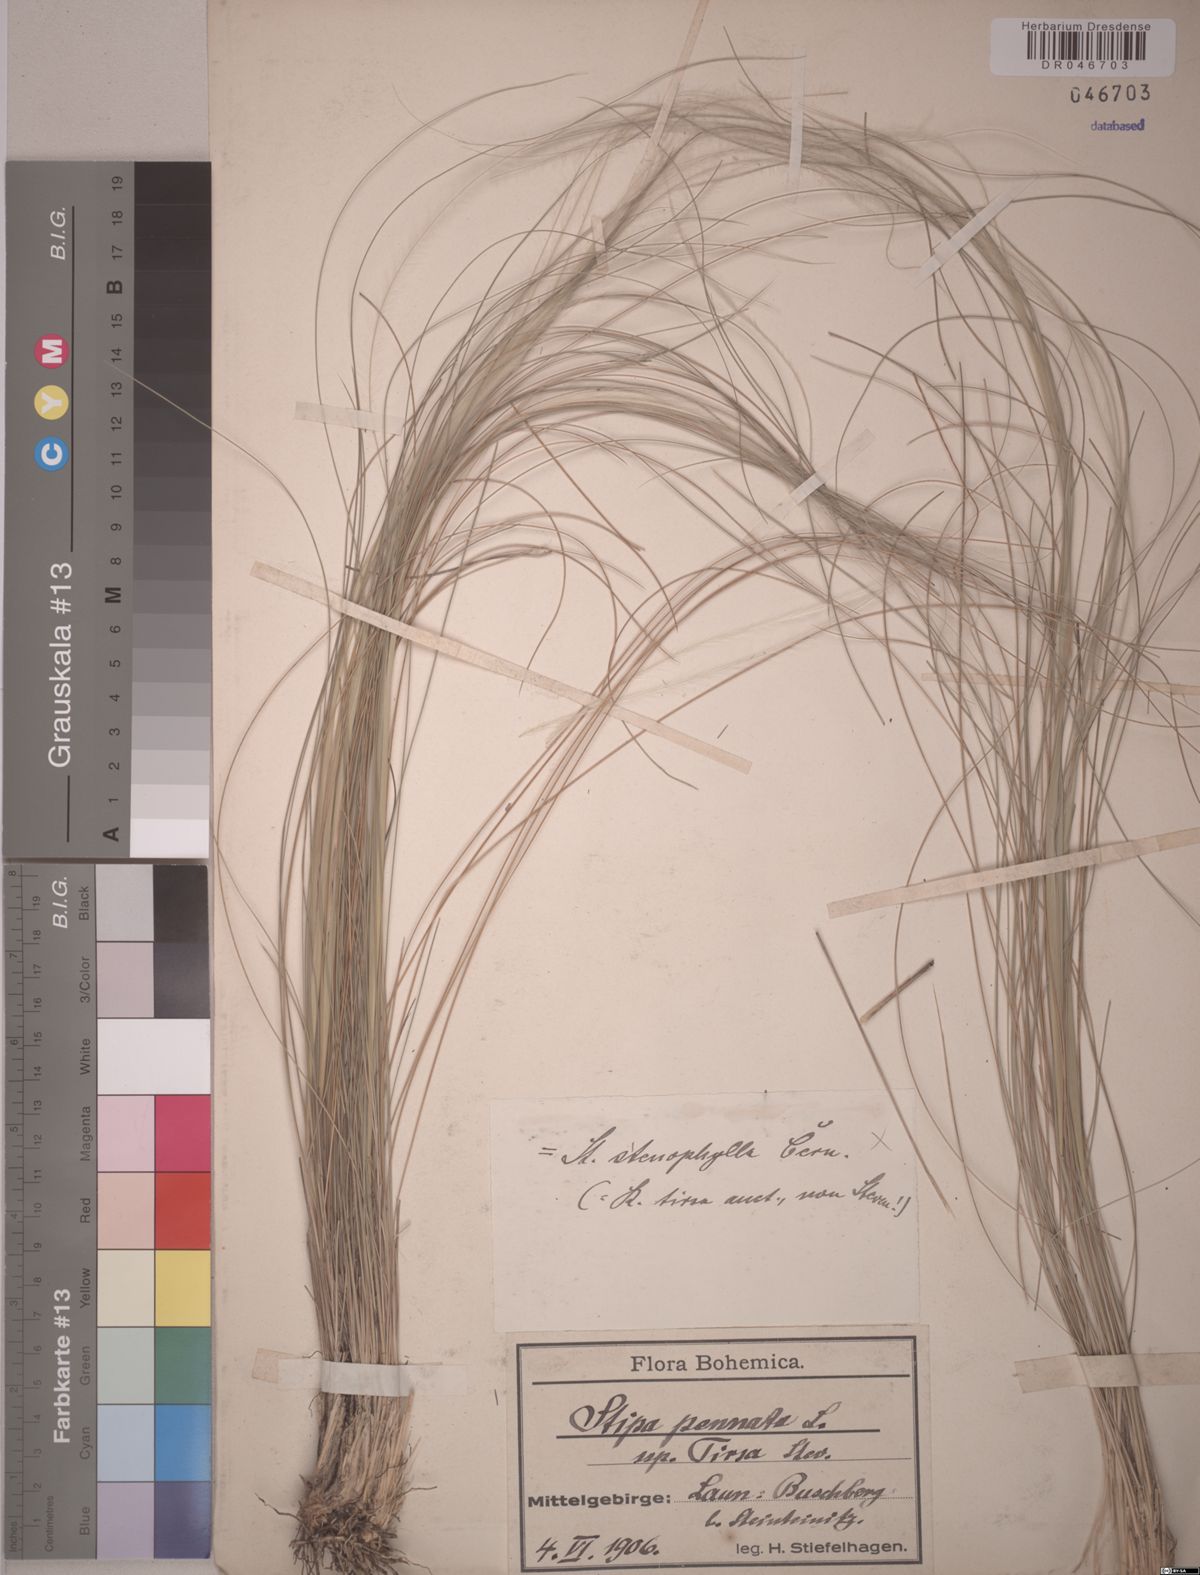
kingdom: Plantae
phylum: Tracheophyta
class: Liliopsida
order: Poales
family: Poaceae
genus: Stipa
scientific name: Stipa tirsa
